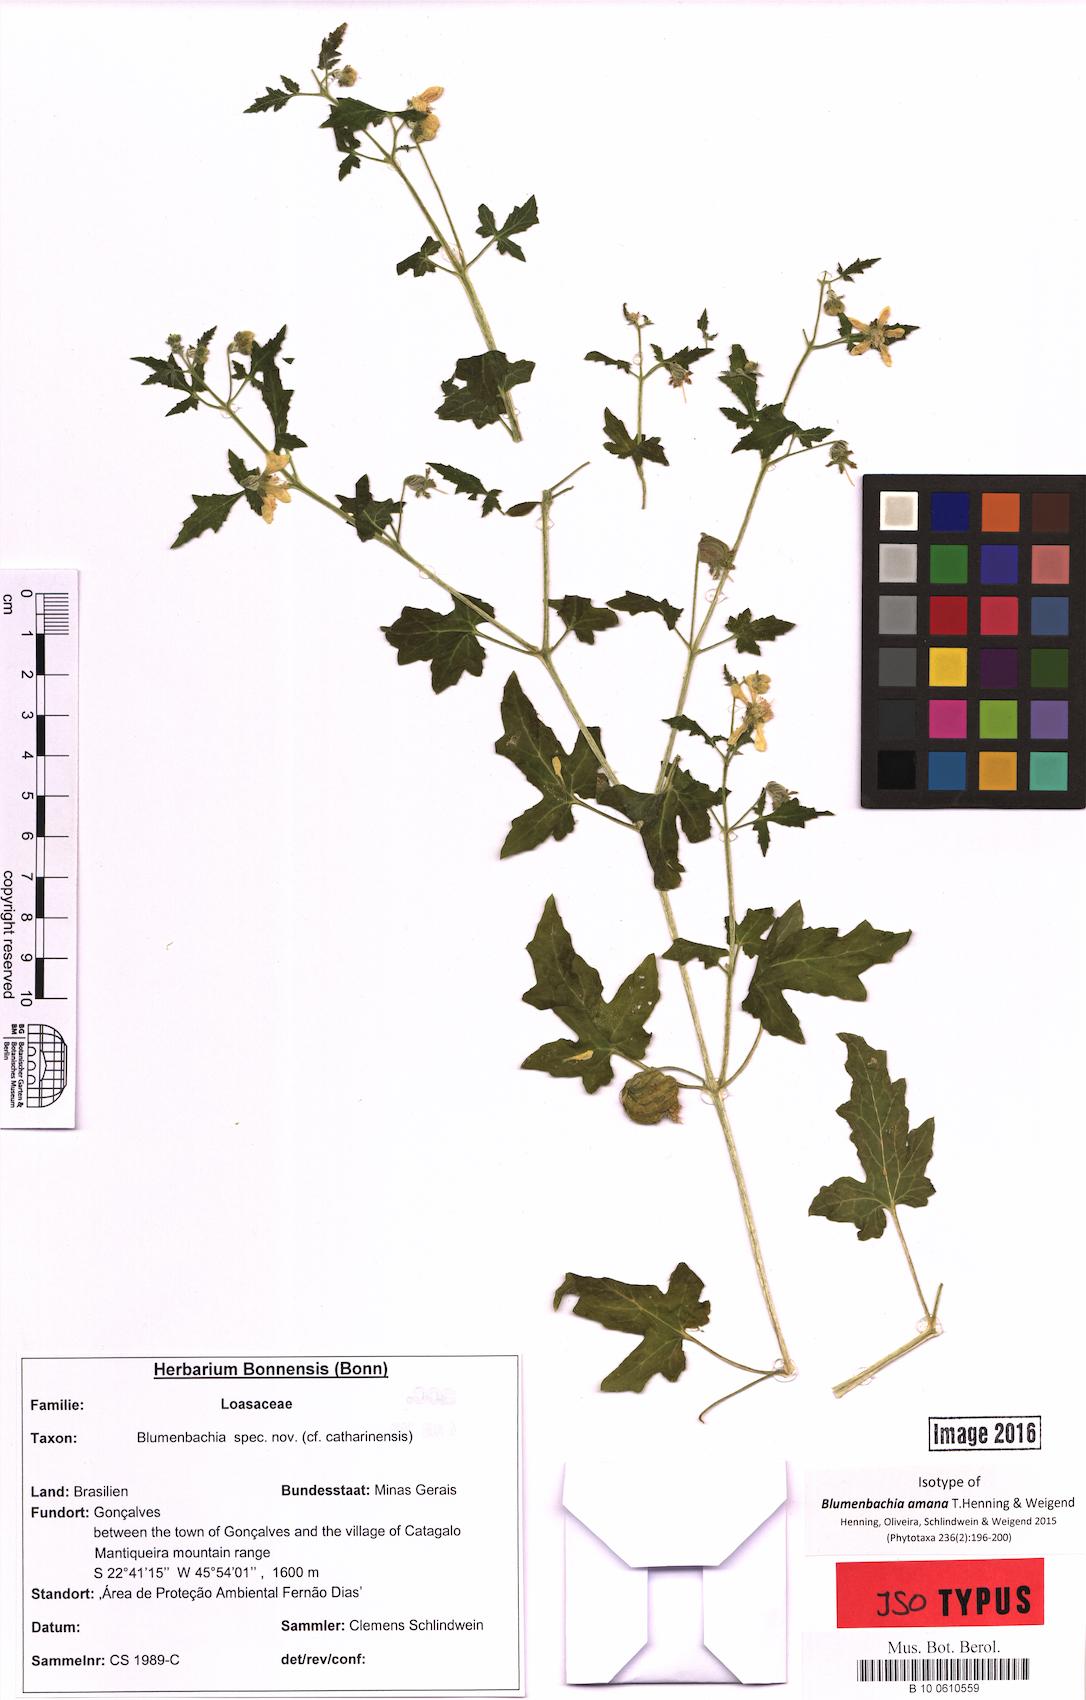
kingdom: Plantae
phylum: Tracheophyta
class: Magnoliopsida
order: Cornales
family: Loasaceae
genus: Blumenbachia
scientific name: Blumenbachia amana
